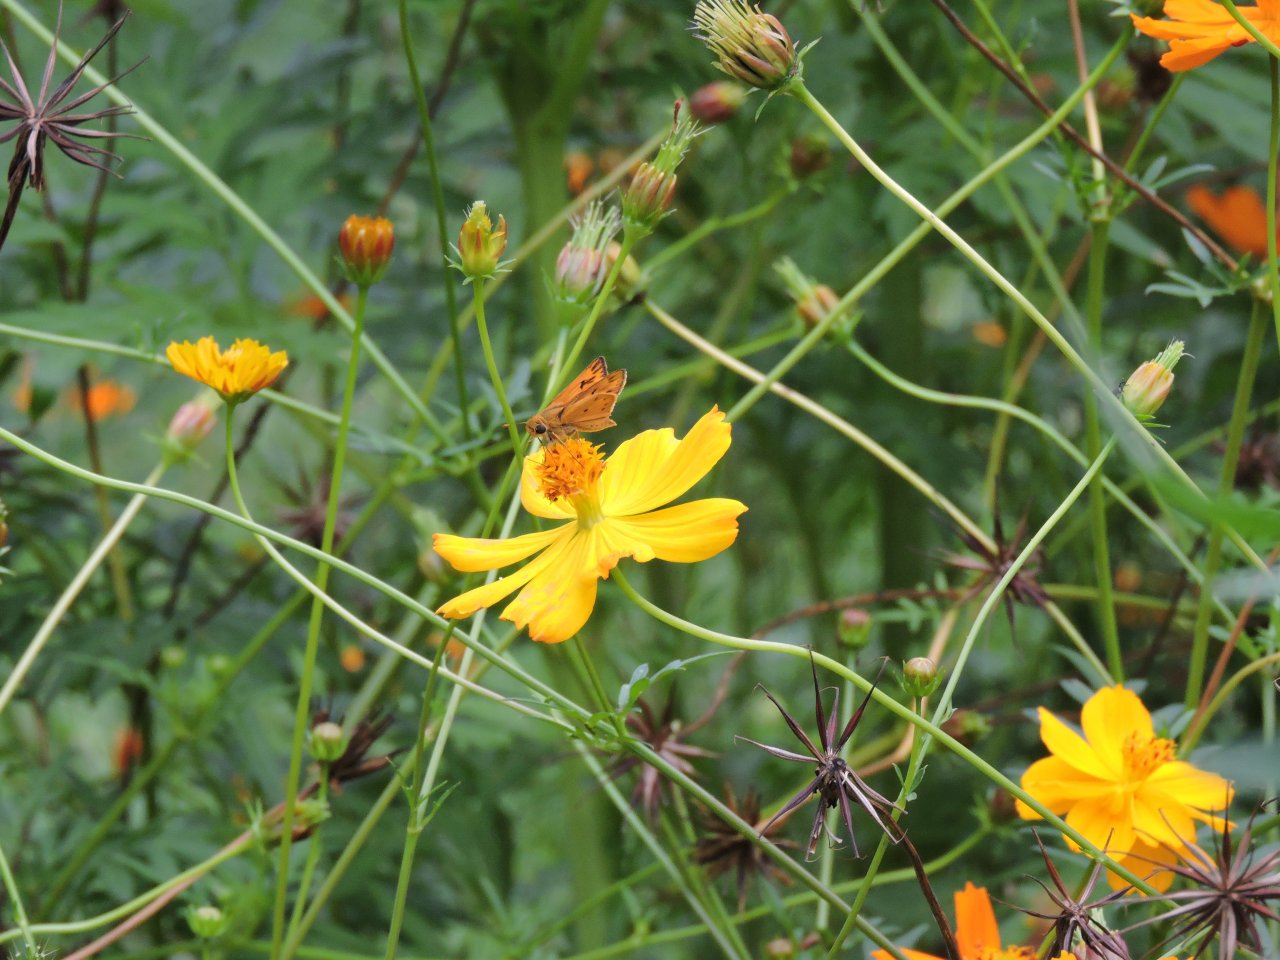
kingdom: Animalia
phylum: Arthropoda
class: Insecta
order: Lepidoptera
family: Hesperiidae
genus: Hylephila
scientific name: Hylephila phyleus
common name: Fiery Skipper
